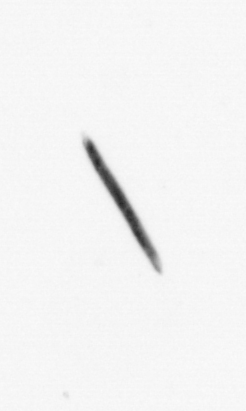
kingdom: Chromista
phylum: Ochrophyta
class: Bacillariophyceae
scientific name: Bacillariophyceae
